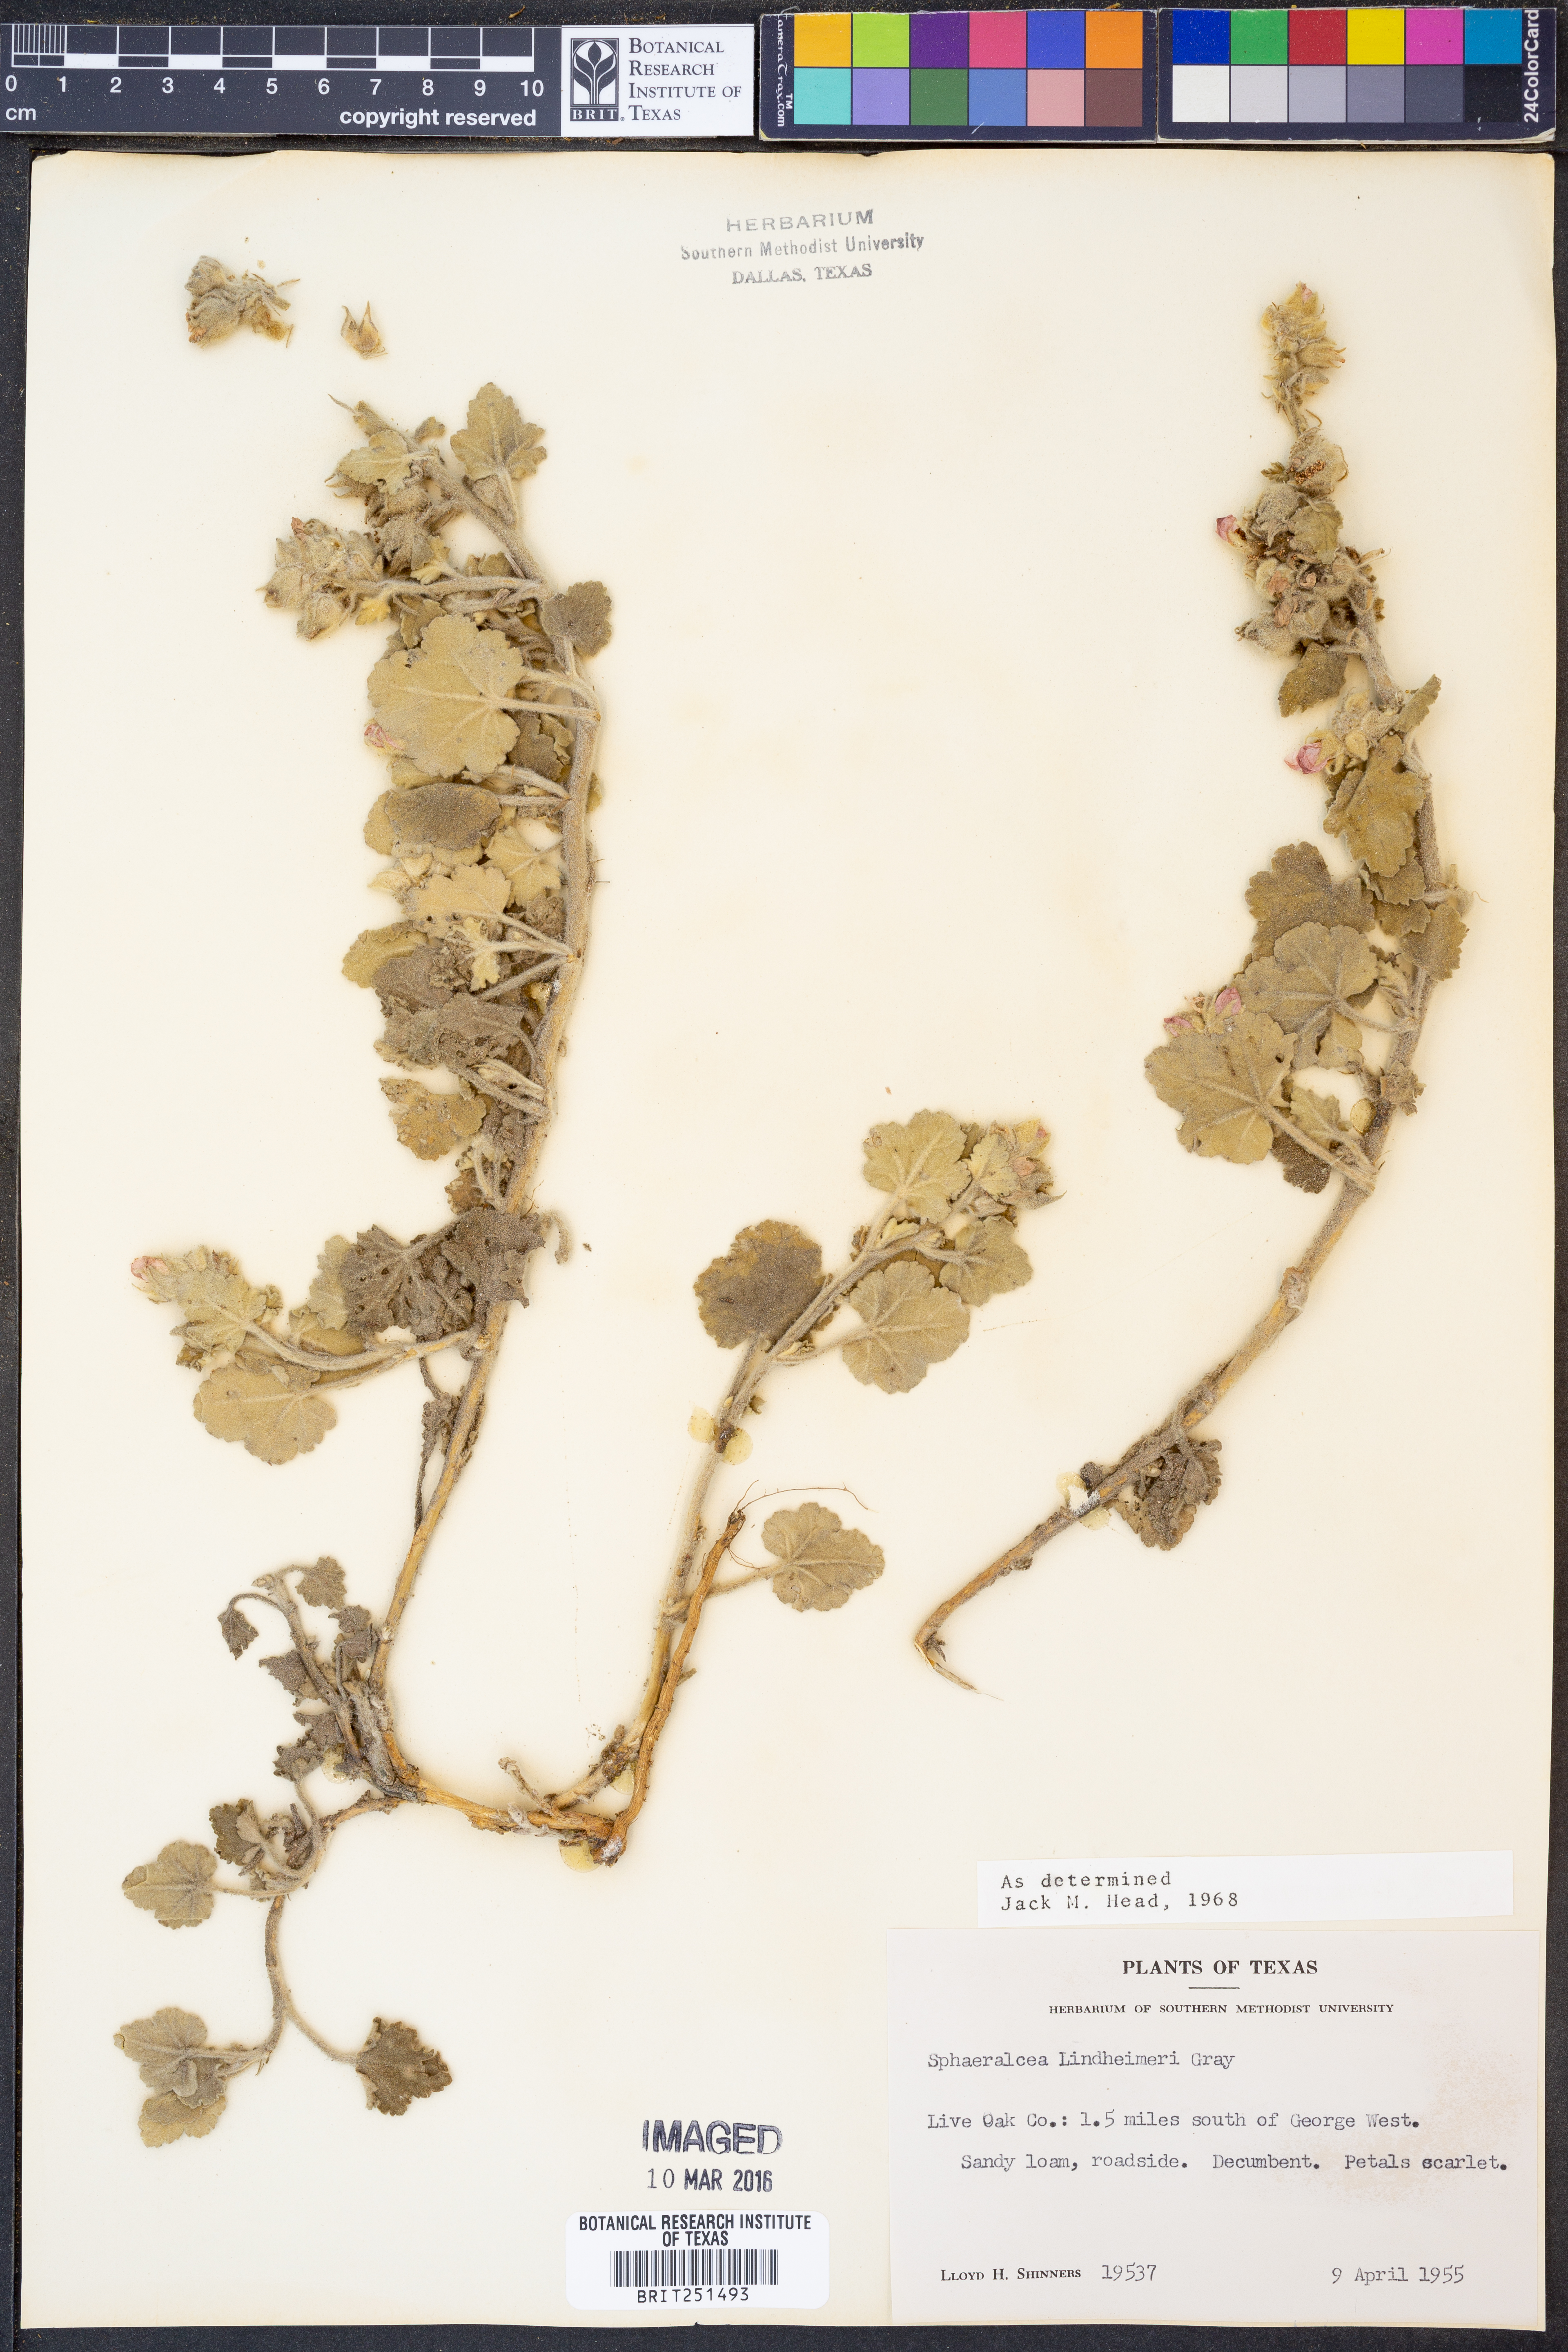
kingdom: Plantae
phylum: Tracheophyta
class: Magnoliopsida
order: Malvales
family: Malvaceae
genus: Sphaeralcea
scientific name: Sphaeralcea lindheimeri
